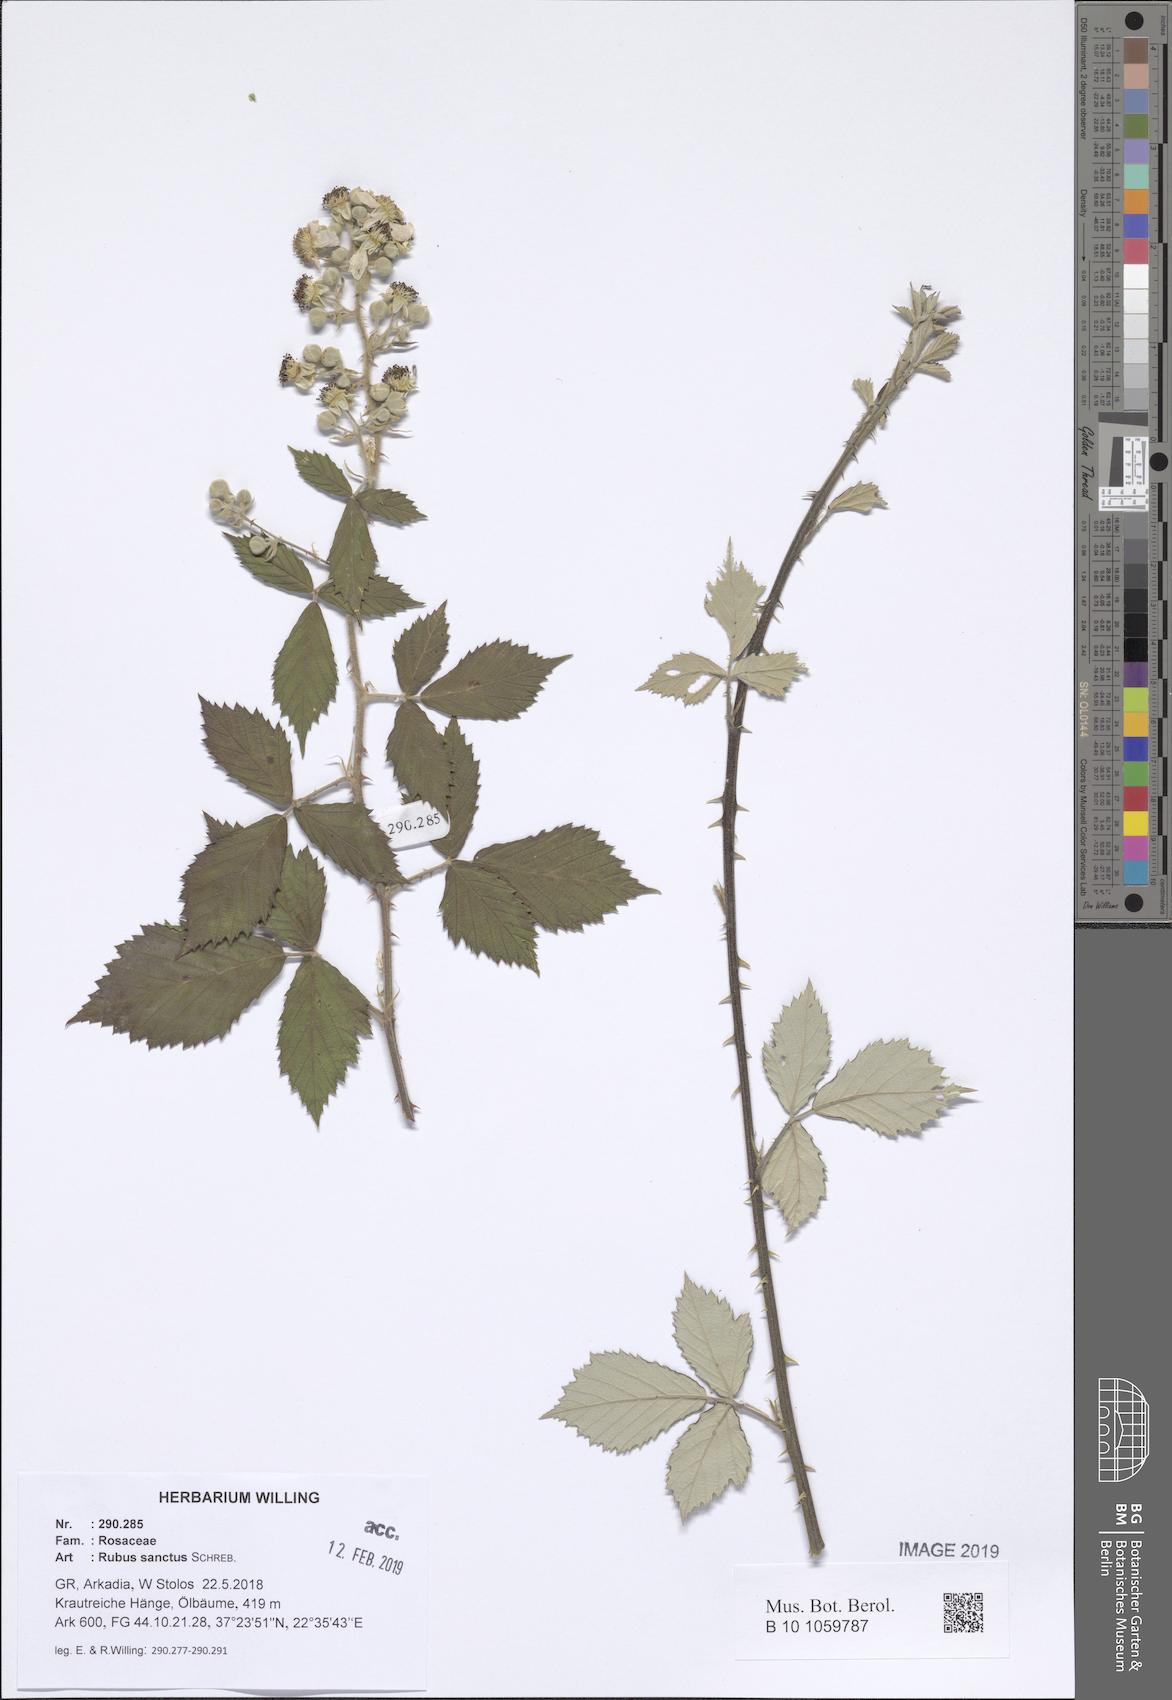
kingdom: Plantae
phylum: Tracheophyta
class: Magnoliopsida
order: Rosales
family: Rosaceae
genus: Rubus
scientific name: Rubus sanctus
